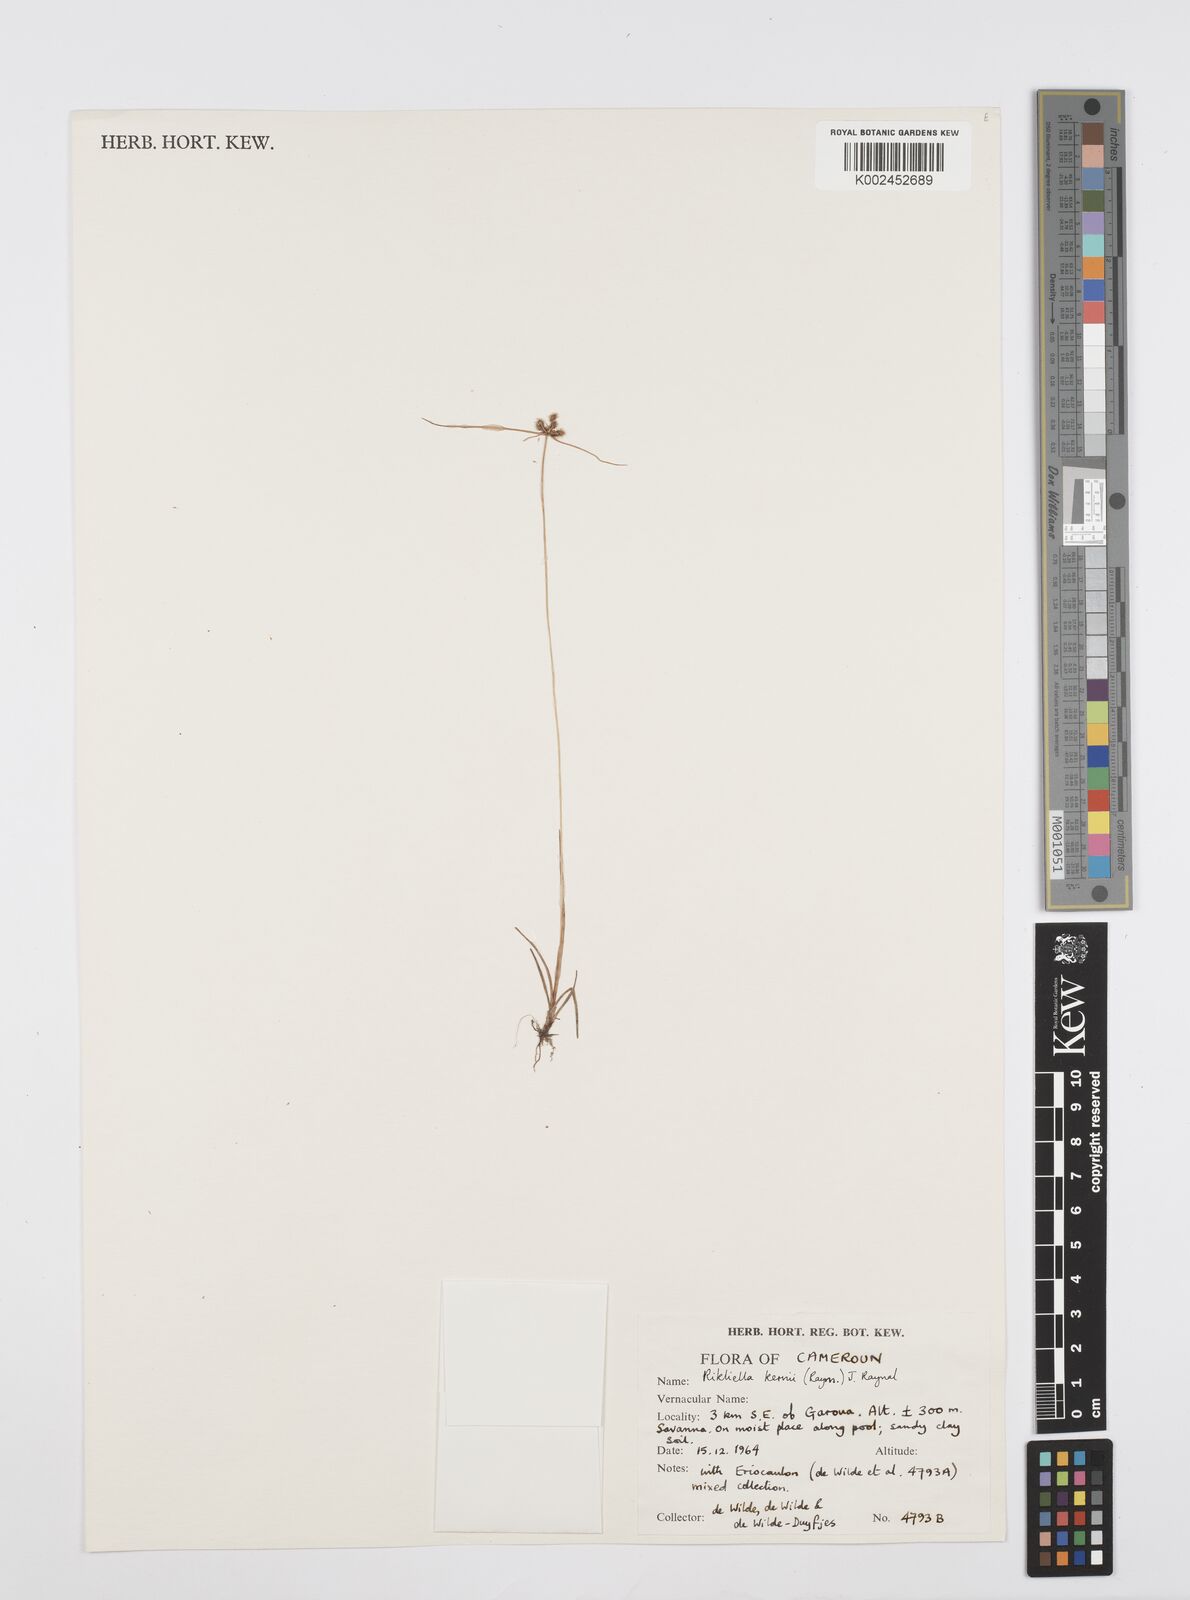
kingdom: Plantae
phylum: Tracheophyta
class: Liliopsida
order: Poales
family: Cyperaceae
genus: Cyperus
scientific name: Cyperus kernii
